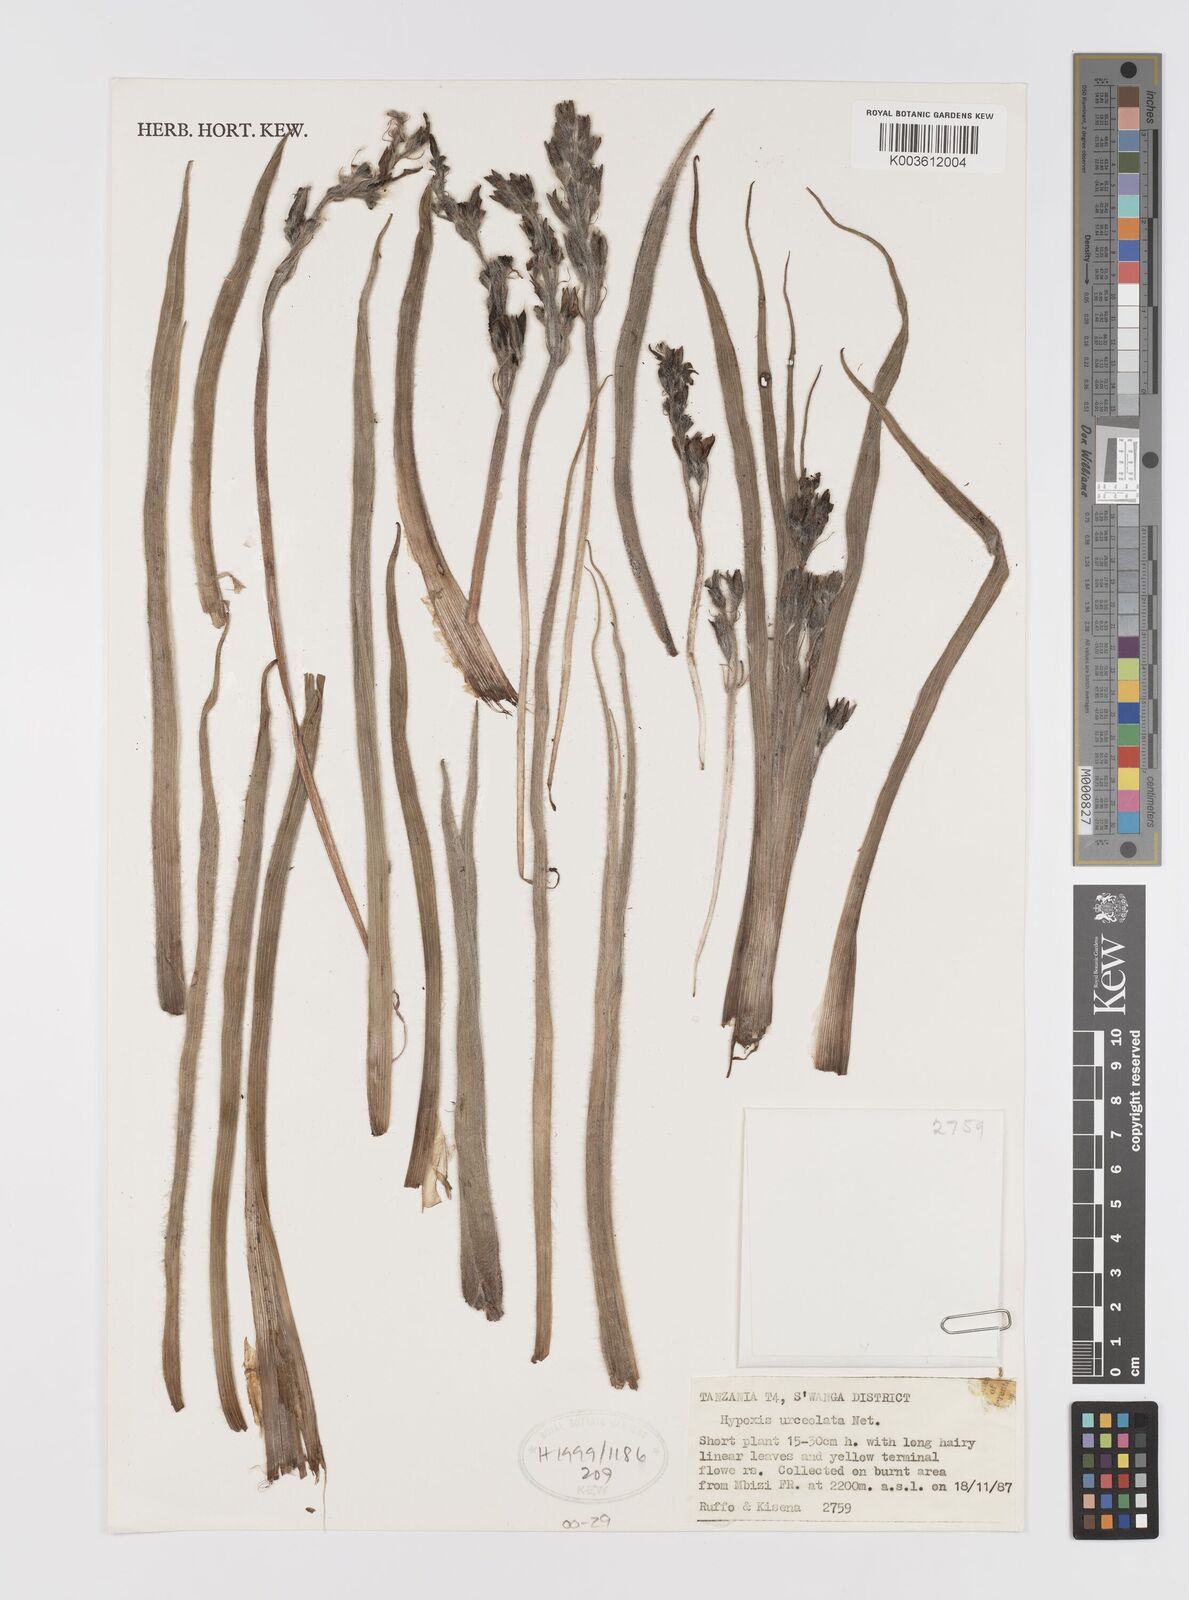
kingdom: Plantae
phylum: Tracheophyta
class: Liliopsida
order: Asparagales
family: Hypoxidaceae
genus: Hypoxis
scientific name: Hypoxis fischeri
